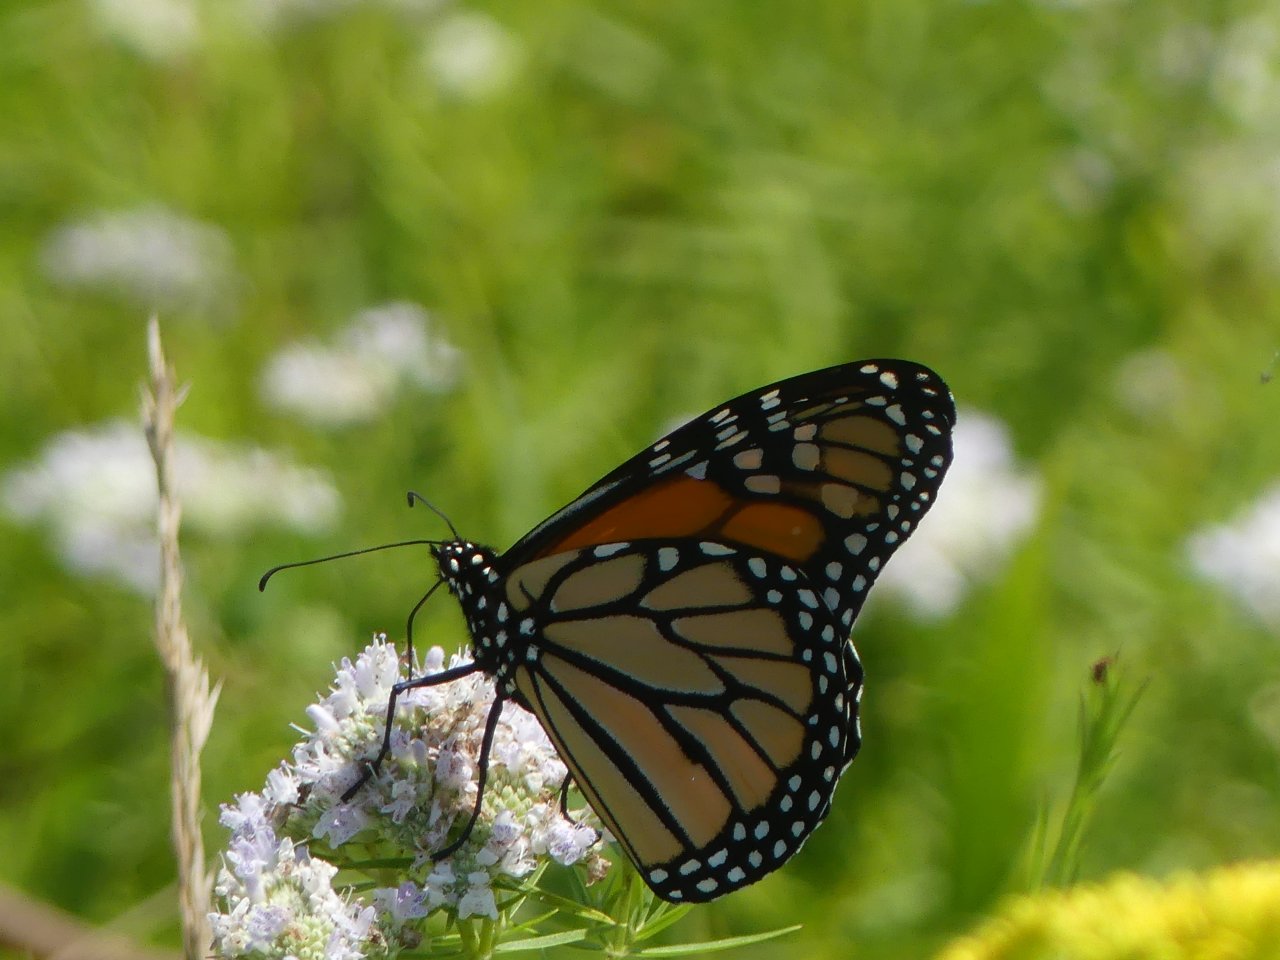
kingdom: Animalia
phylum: Arthropoda
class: Insecta
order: Lepidoptera
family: Nymphalidae
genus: Danaus
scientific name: Danaus plexippus
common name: Monarch
